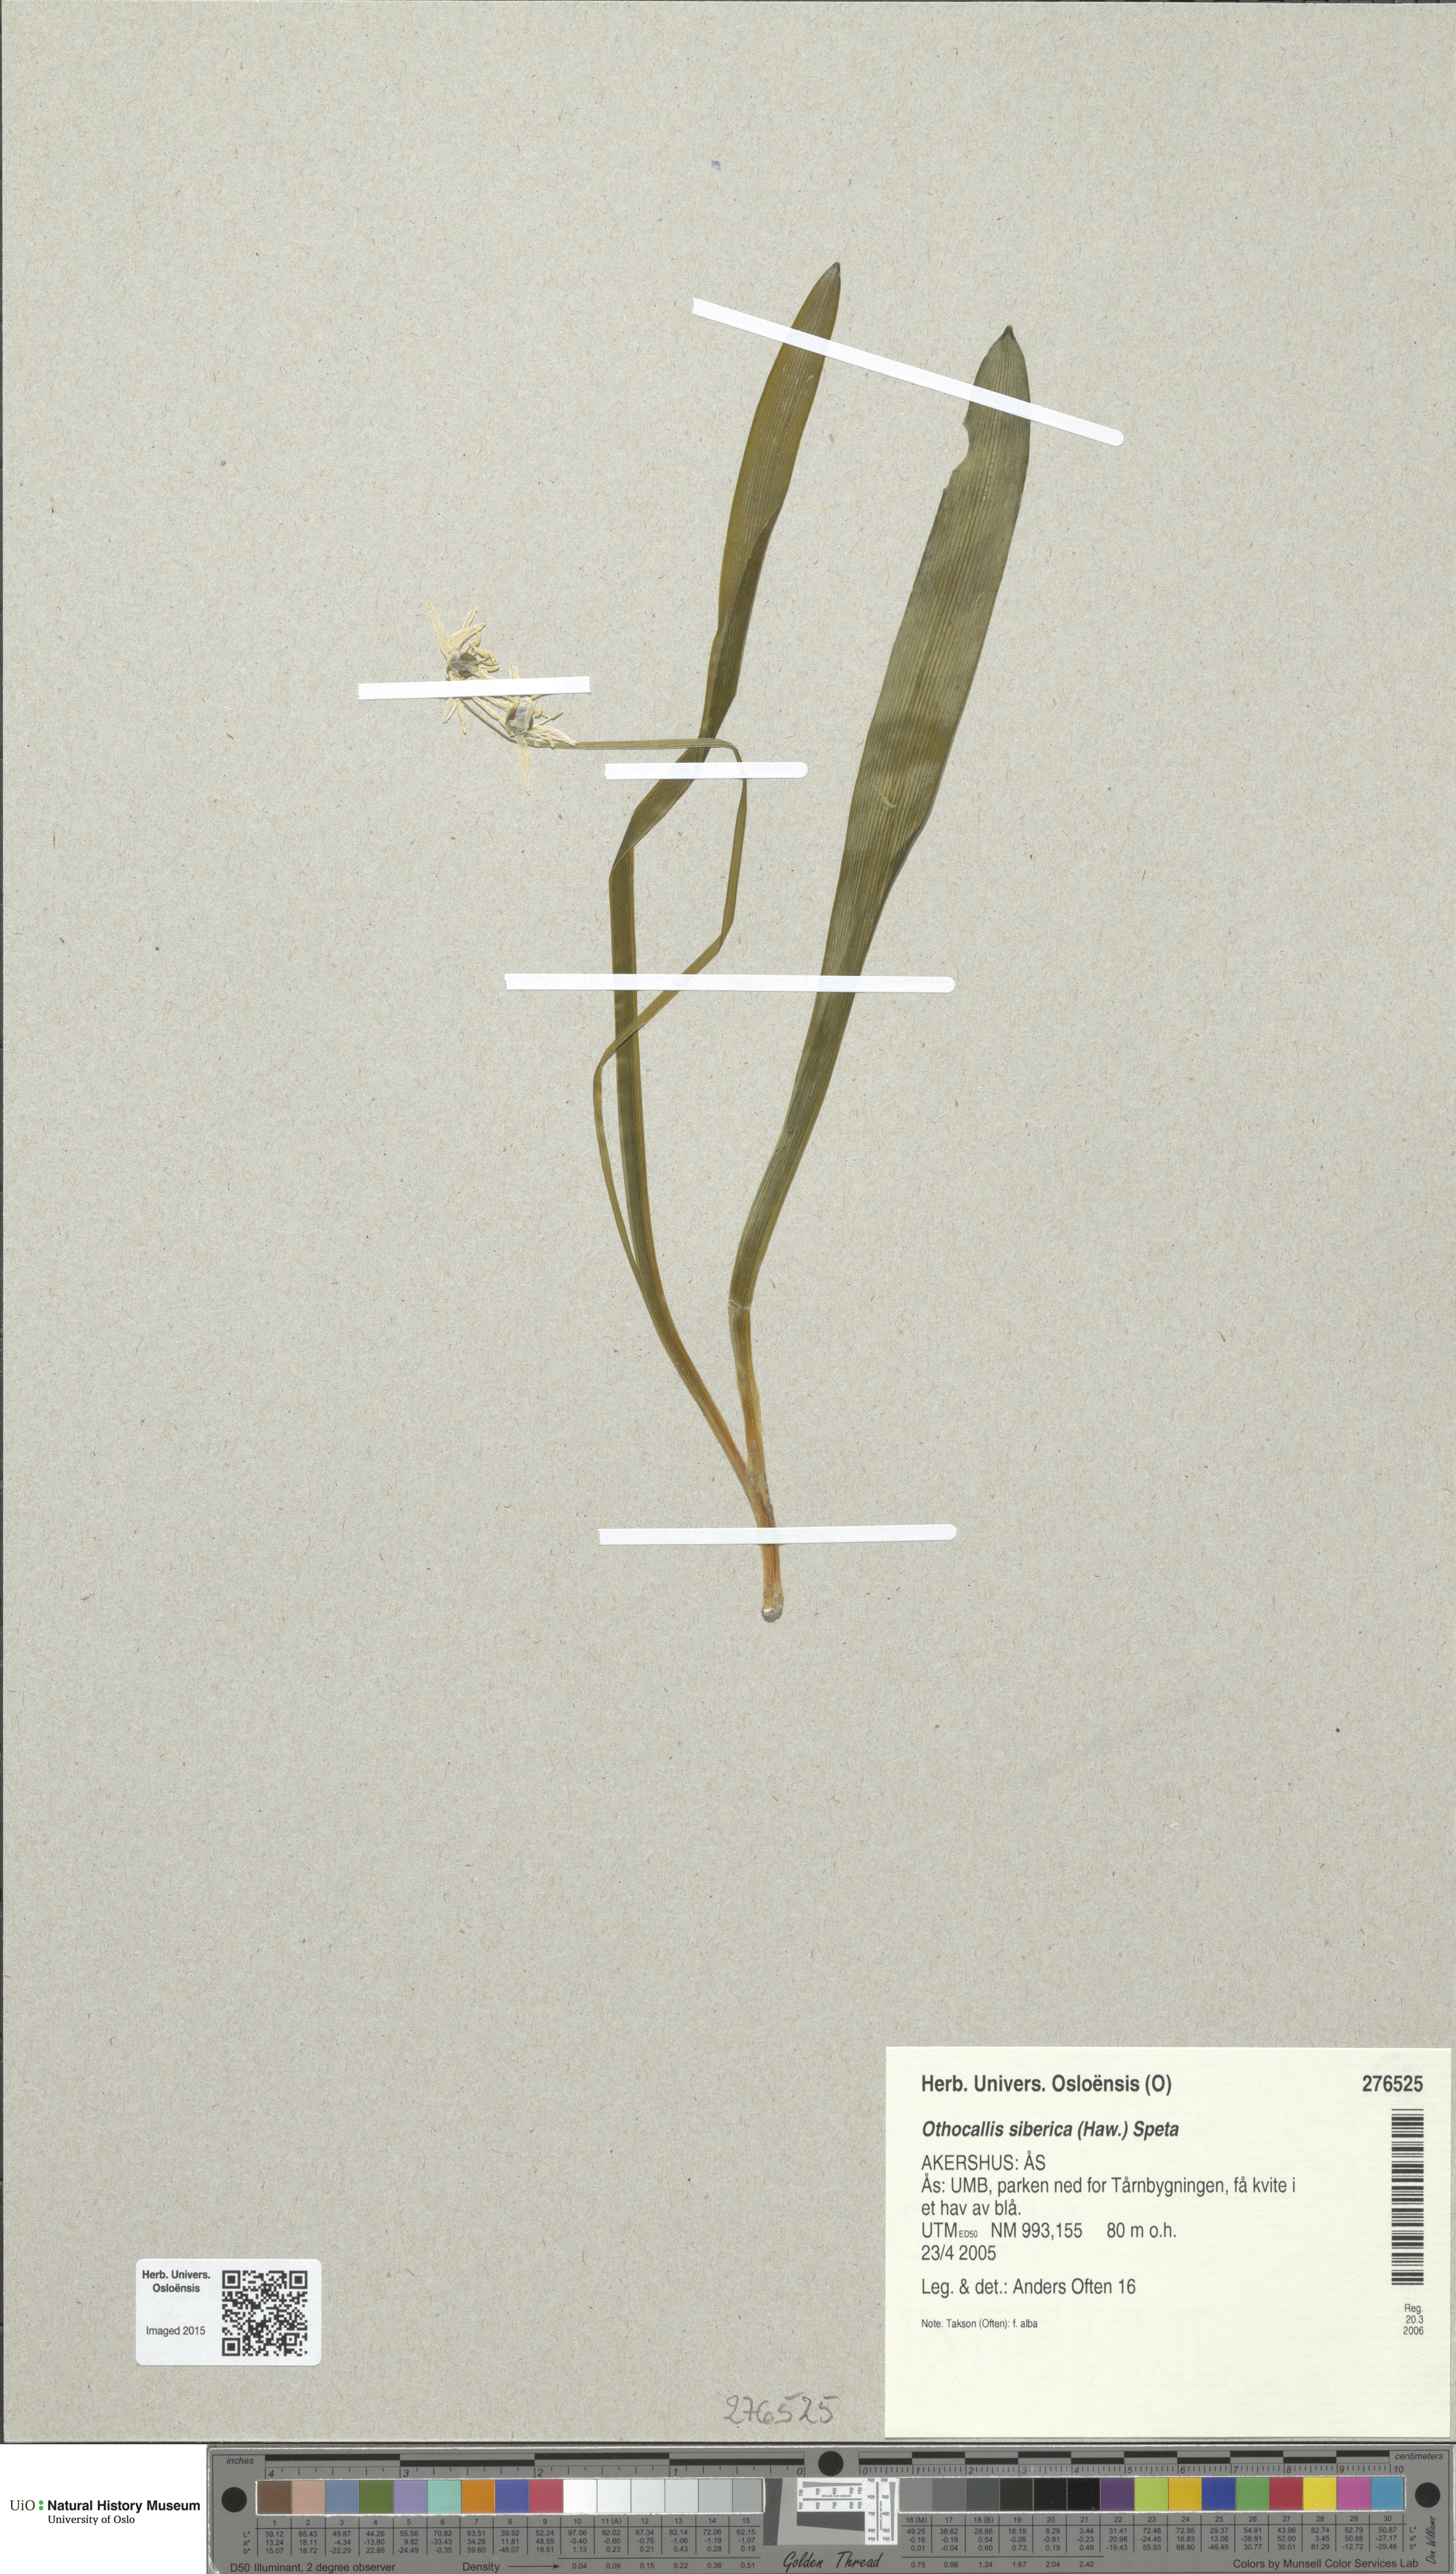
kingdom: Plantae
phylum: Tracheophyta
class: Liliopsida
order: Asparagales
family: Asparagaceae
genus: Scilla
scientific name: Scilla siberica
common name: Siberian squill
